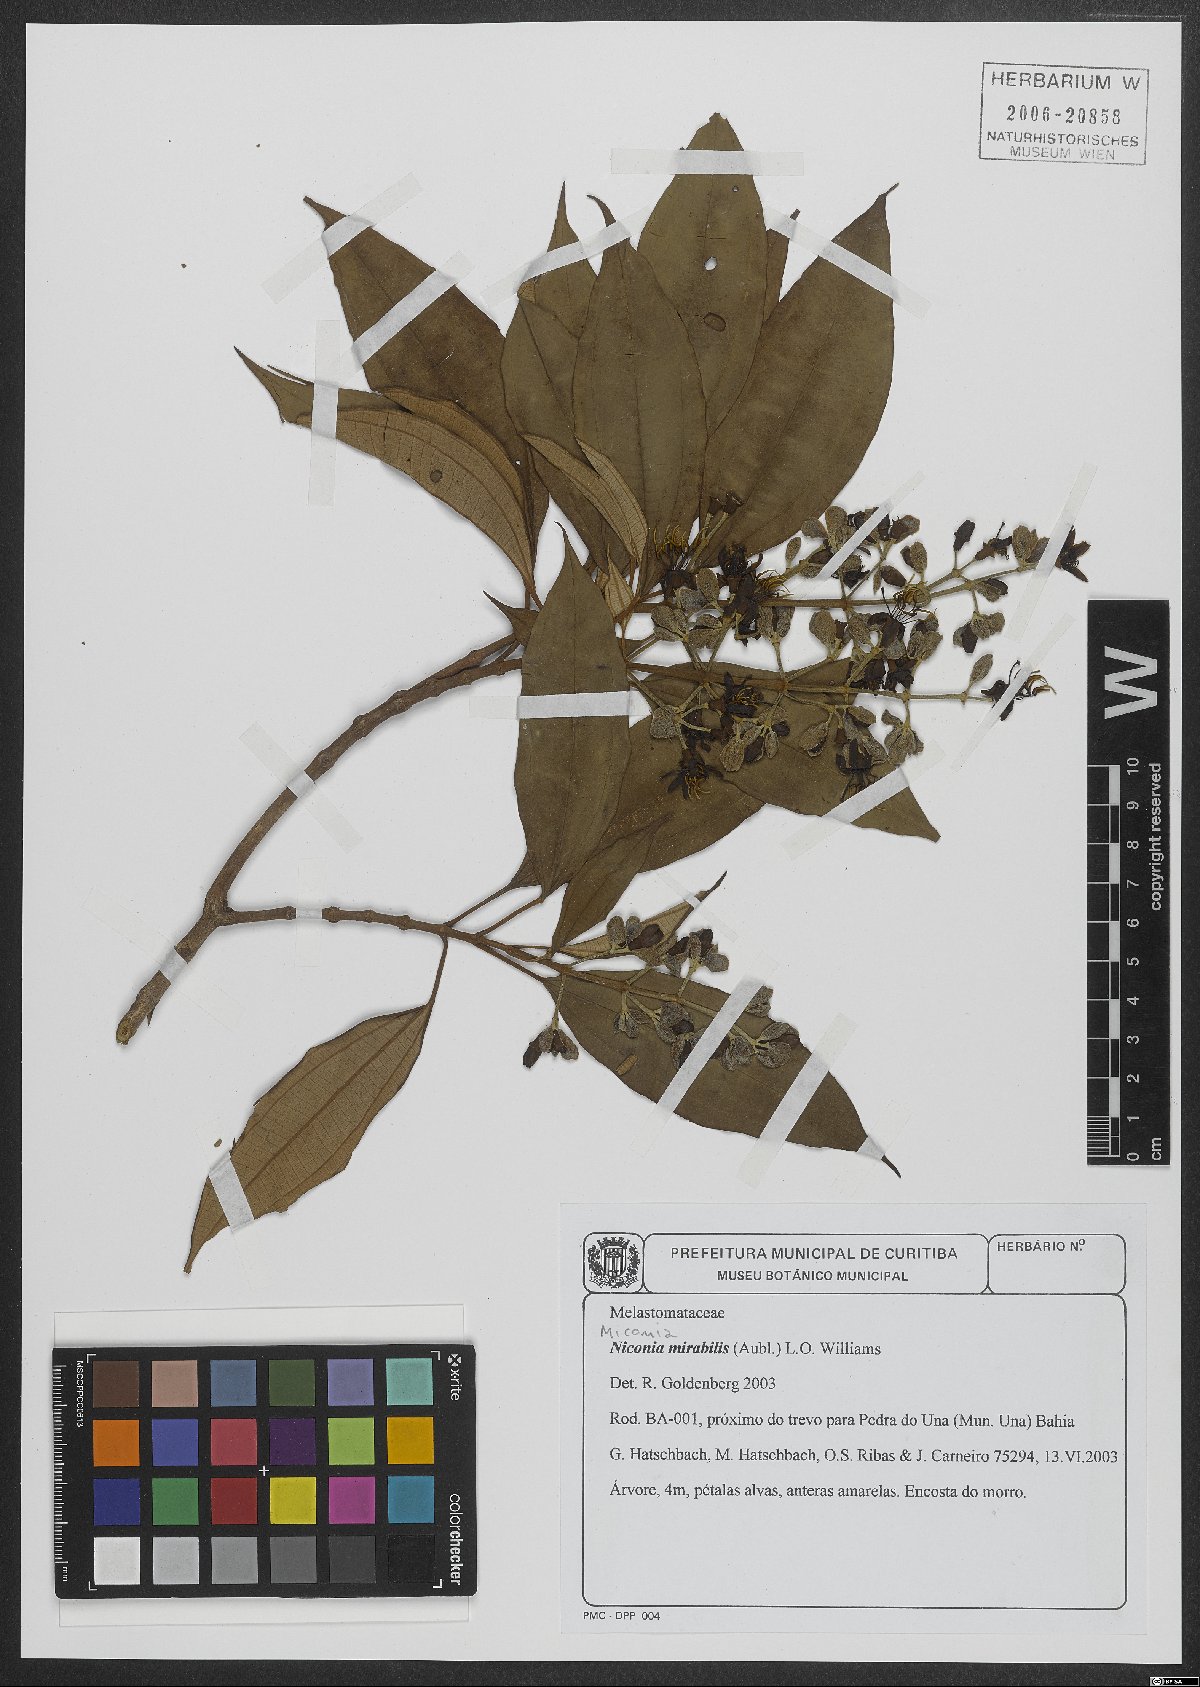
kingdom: Plantae
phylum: Tracheophyta
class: Magnoliopsida
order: Myrtales
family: Melastomataceae
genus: Miconia
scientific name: Miconia mirabilis
